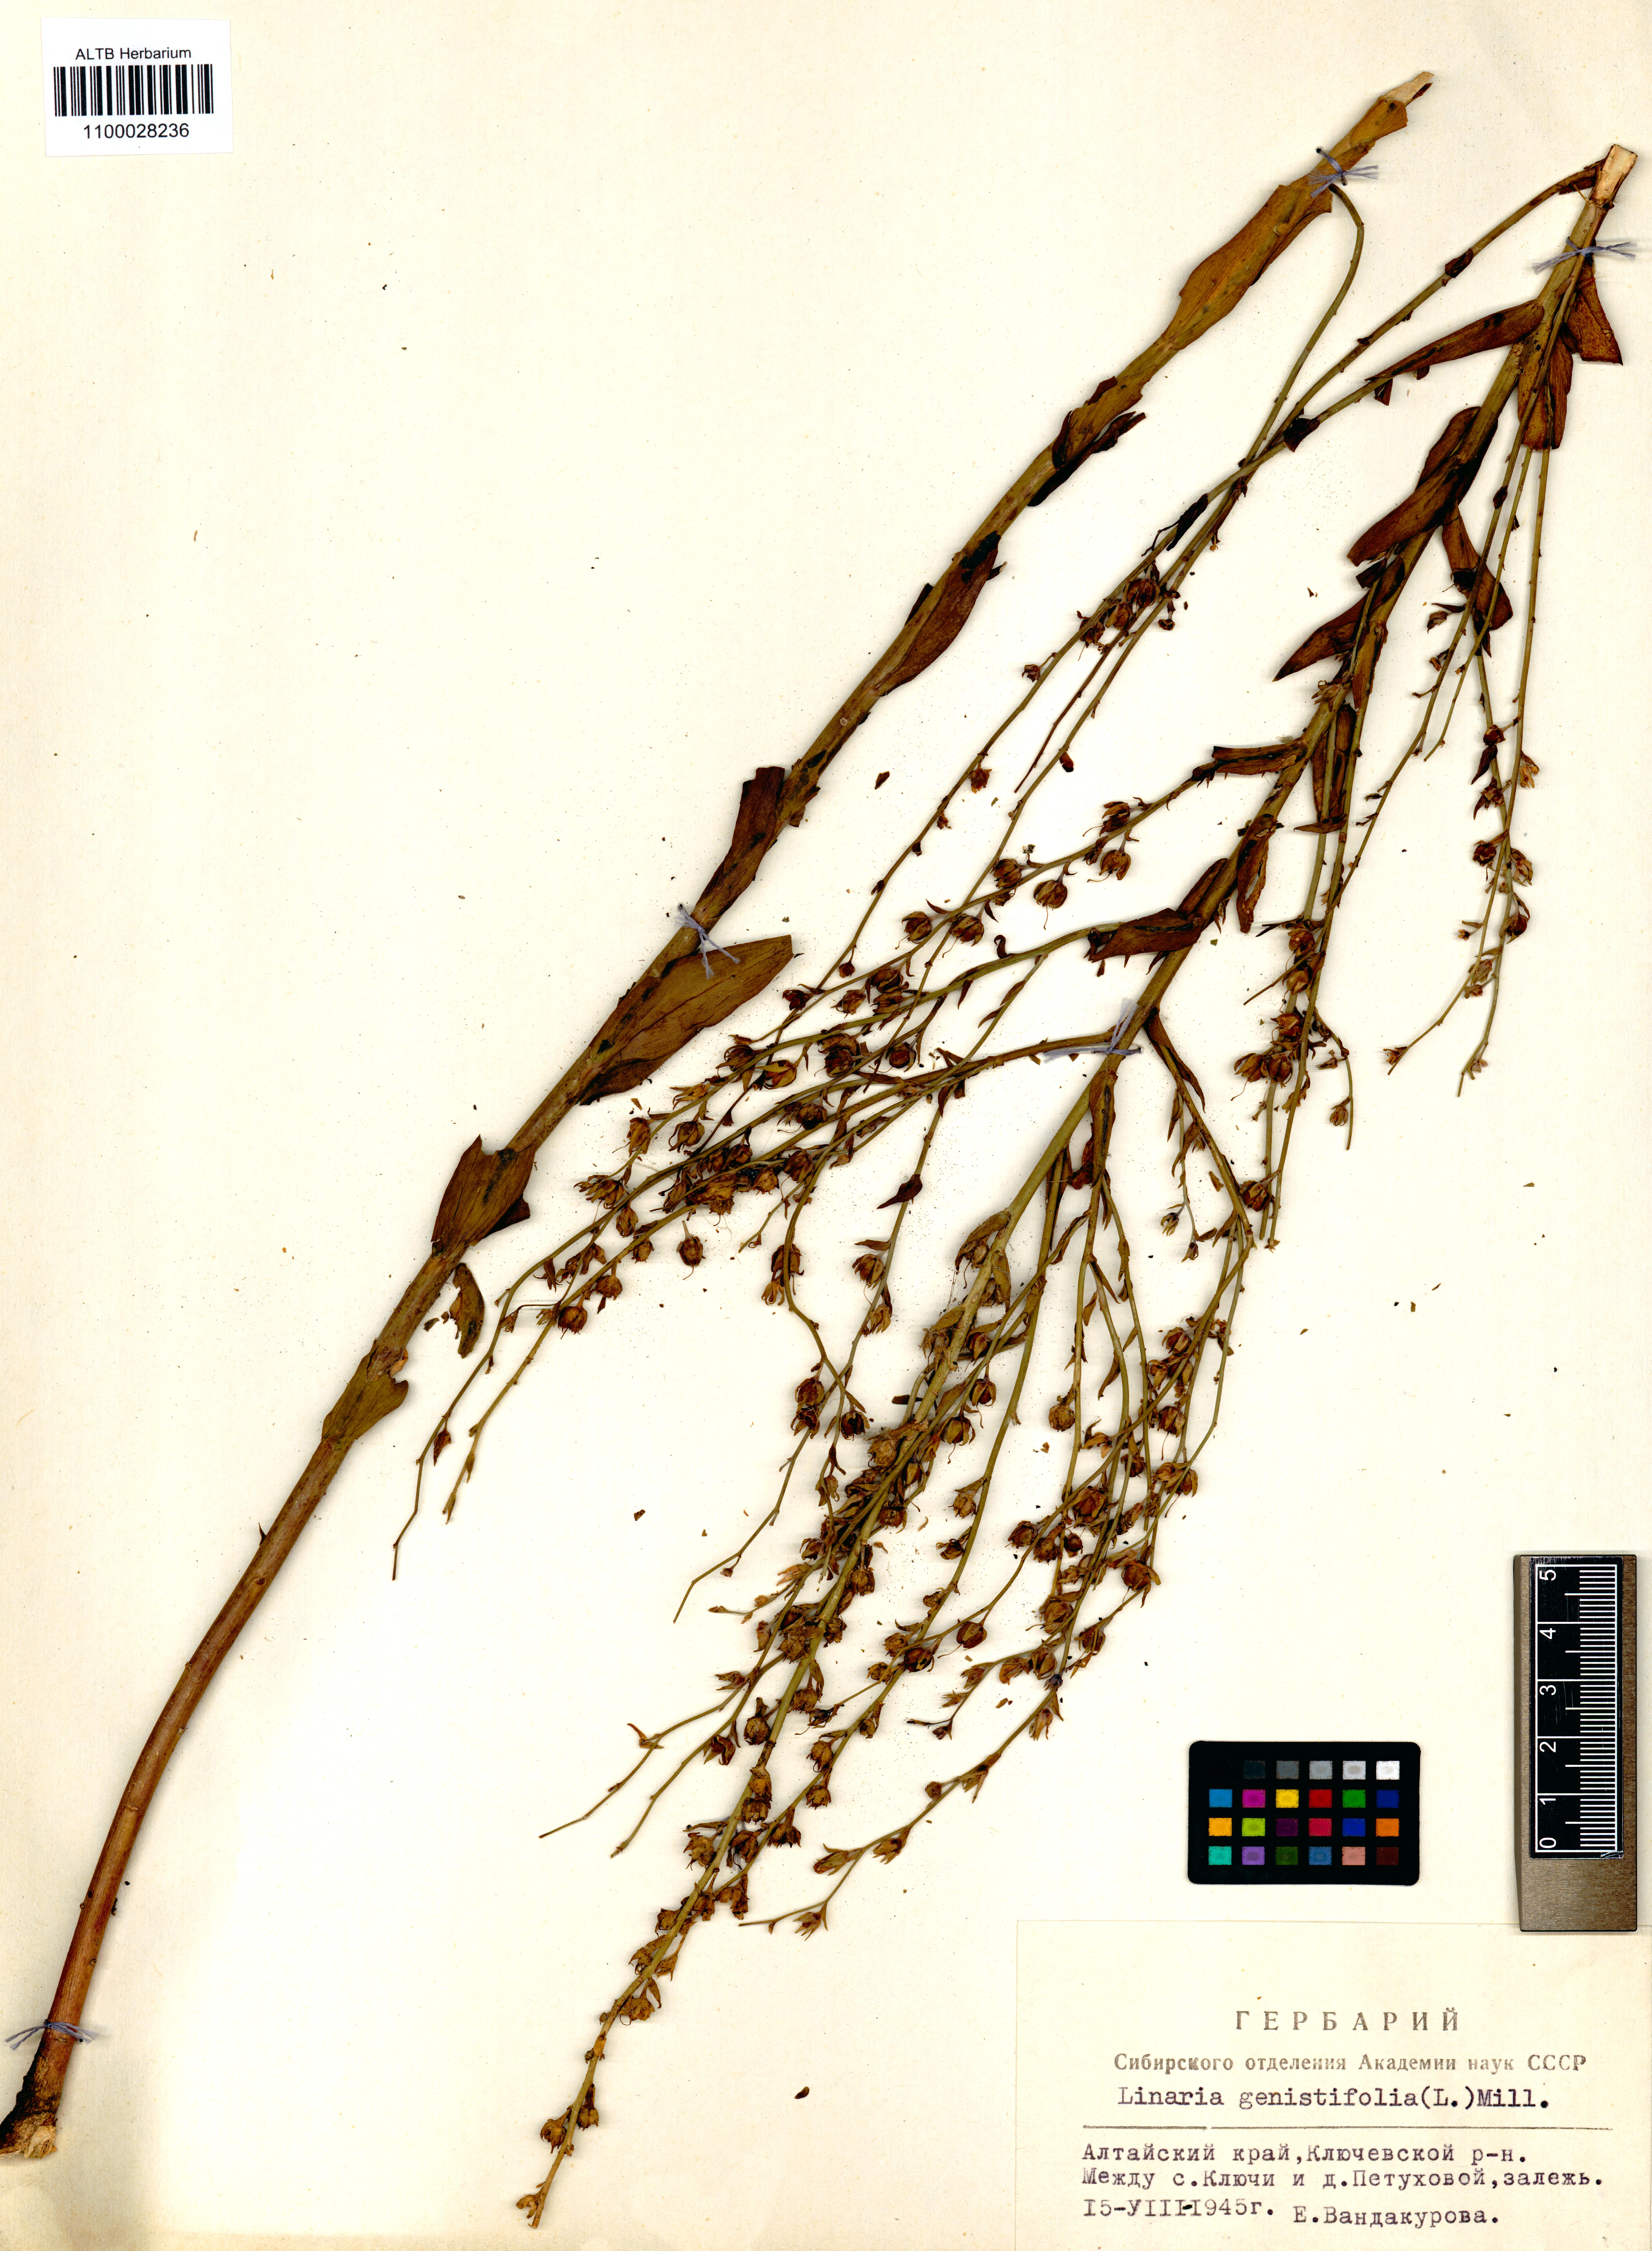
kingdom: Plantae
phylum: Tracheophyta
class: Magnoliopsida
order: Lamiales
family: Plantaginaceae
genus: Linaria
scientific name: Linaria genistifolia
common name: Broomleaf toadflax
